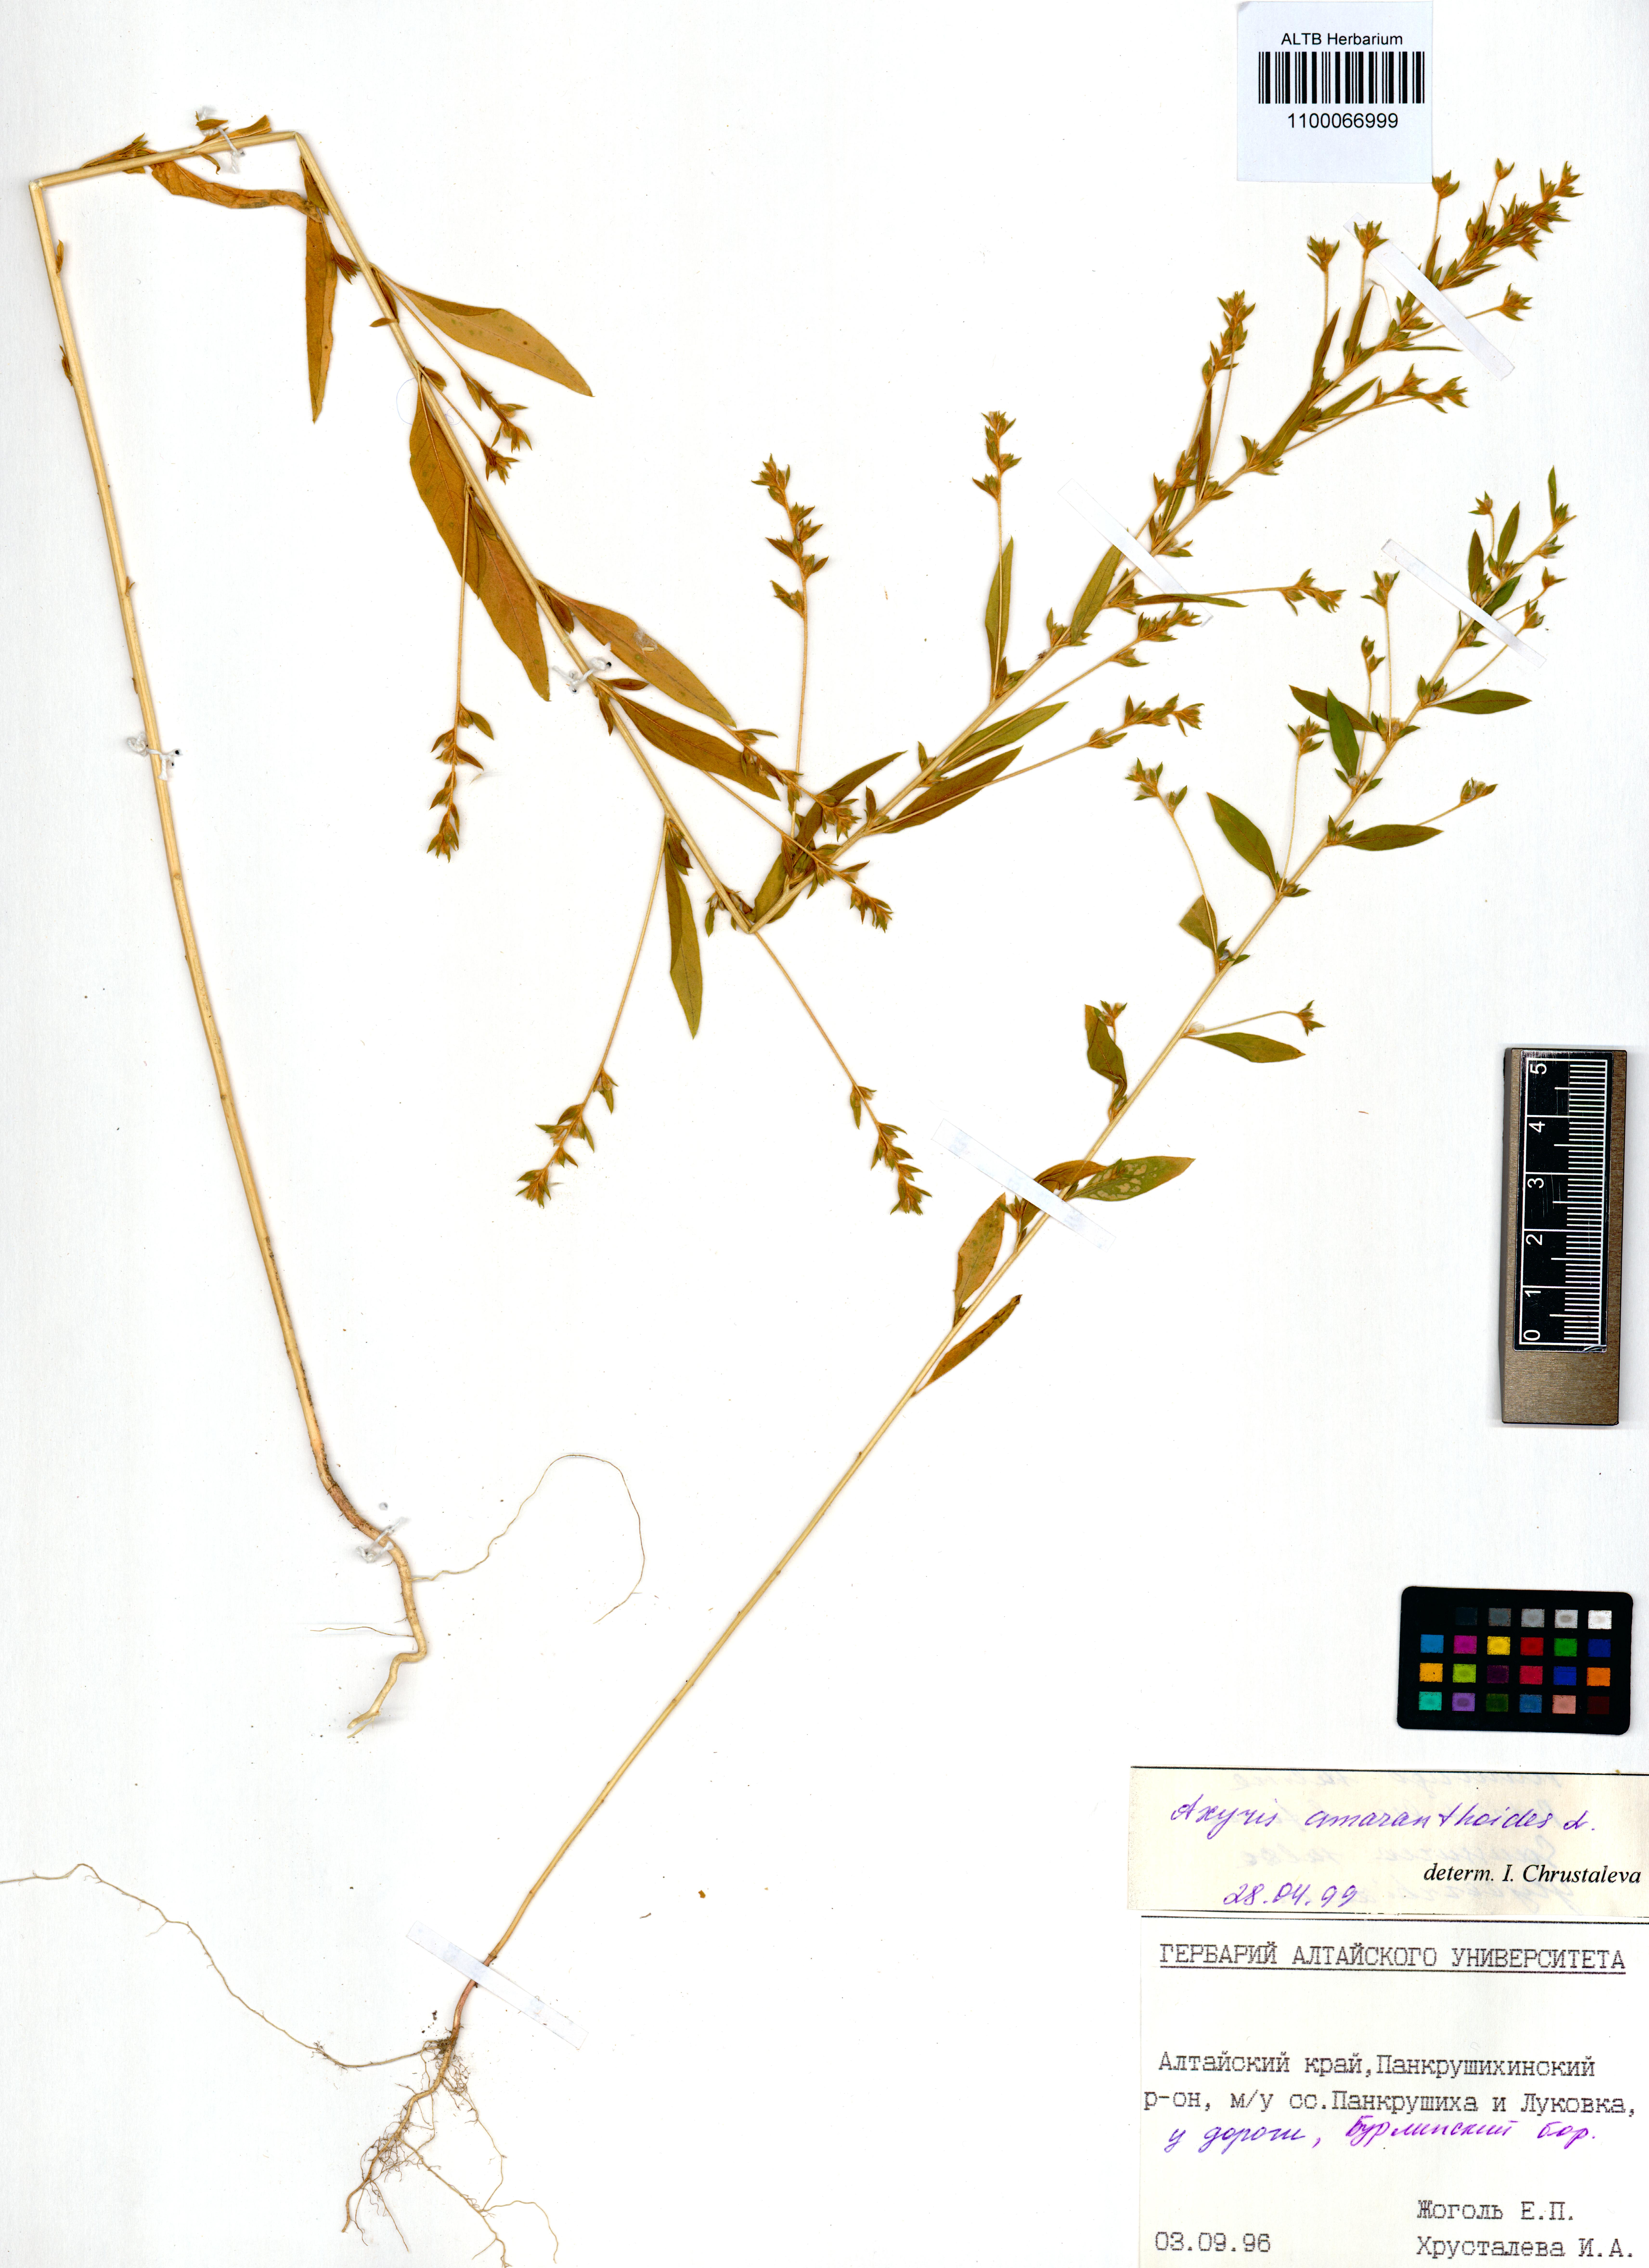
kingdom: Plantae
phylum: Tracheophyta
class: Magnoliopsida
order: Caryophyllales
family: Amaranthaceae
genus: Axyris
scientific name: Axyris amaranthoides
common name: Russian pigweed
